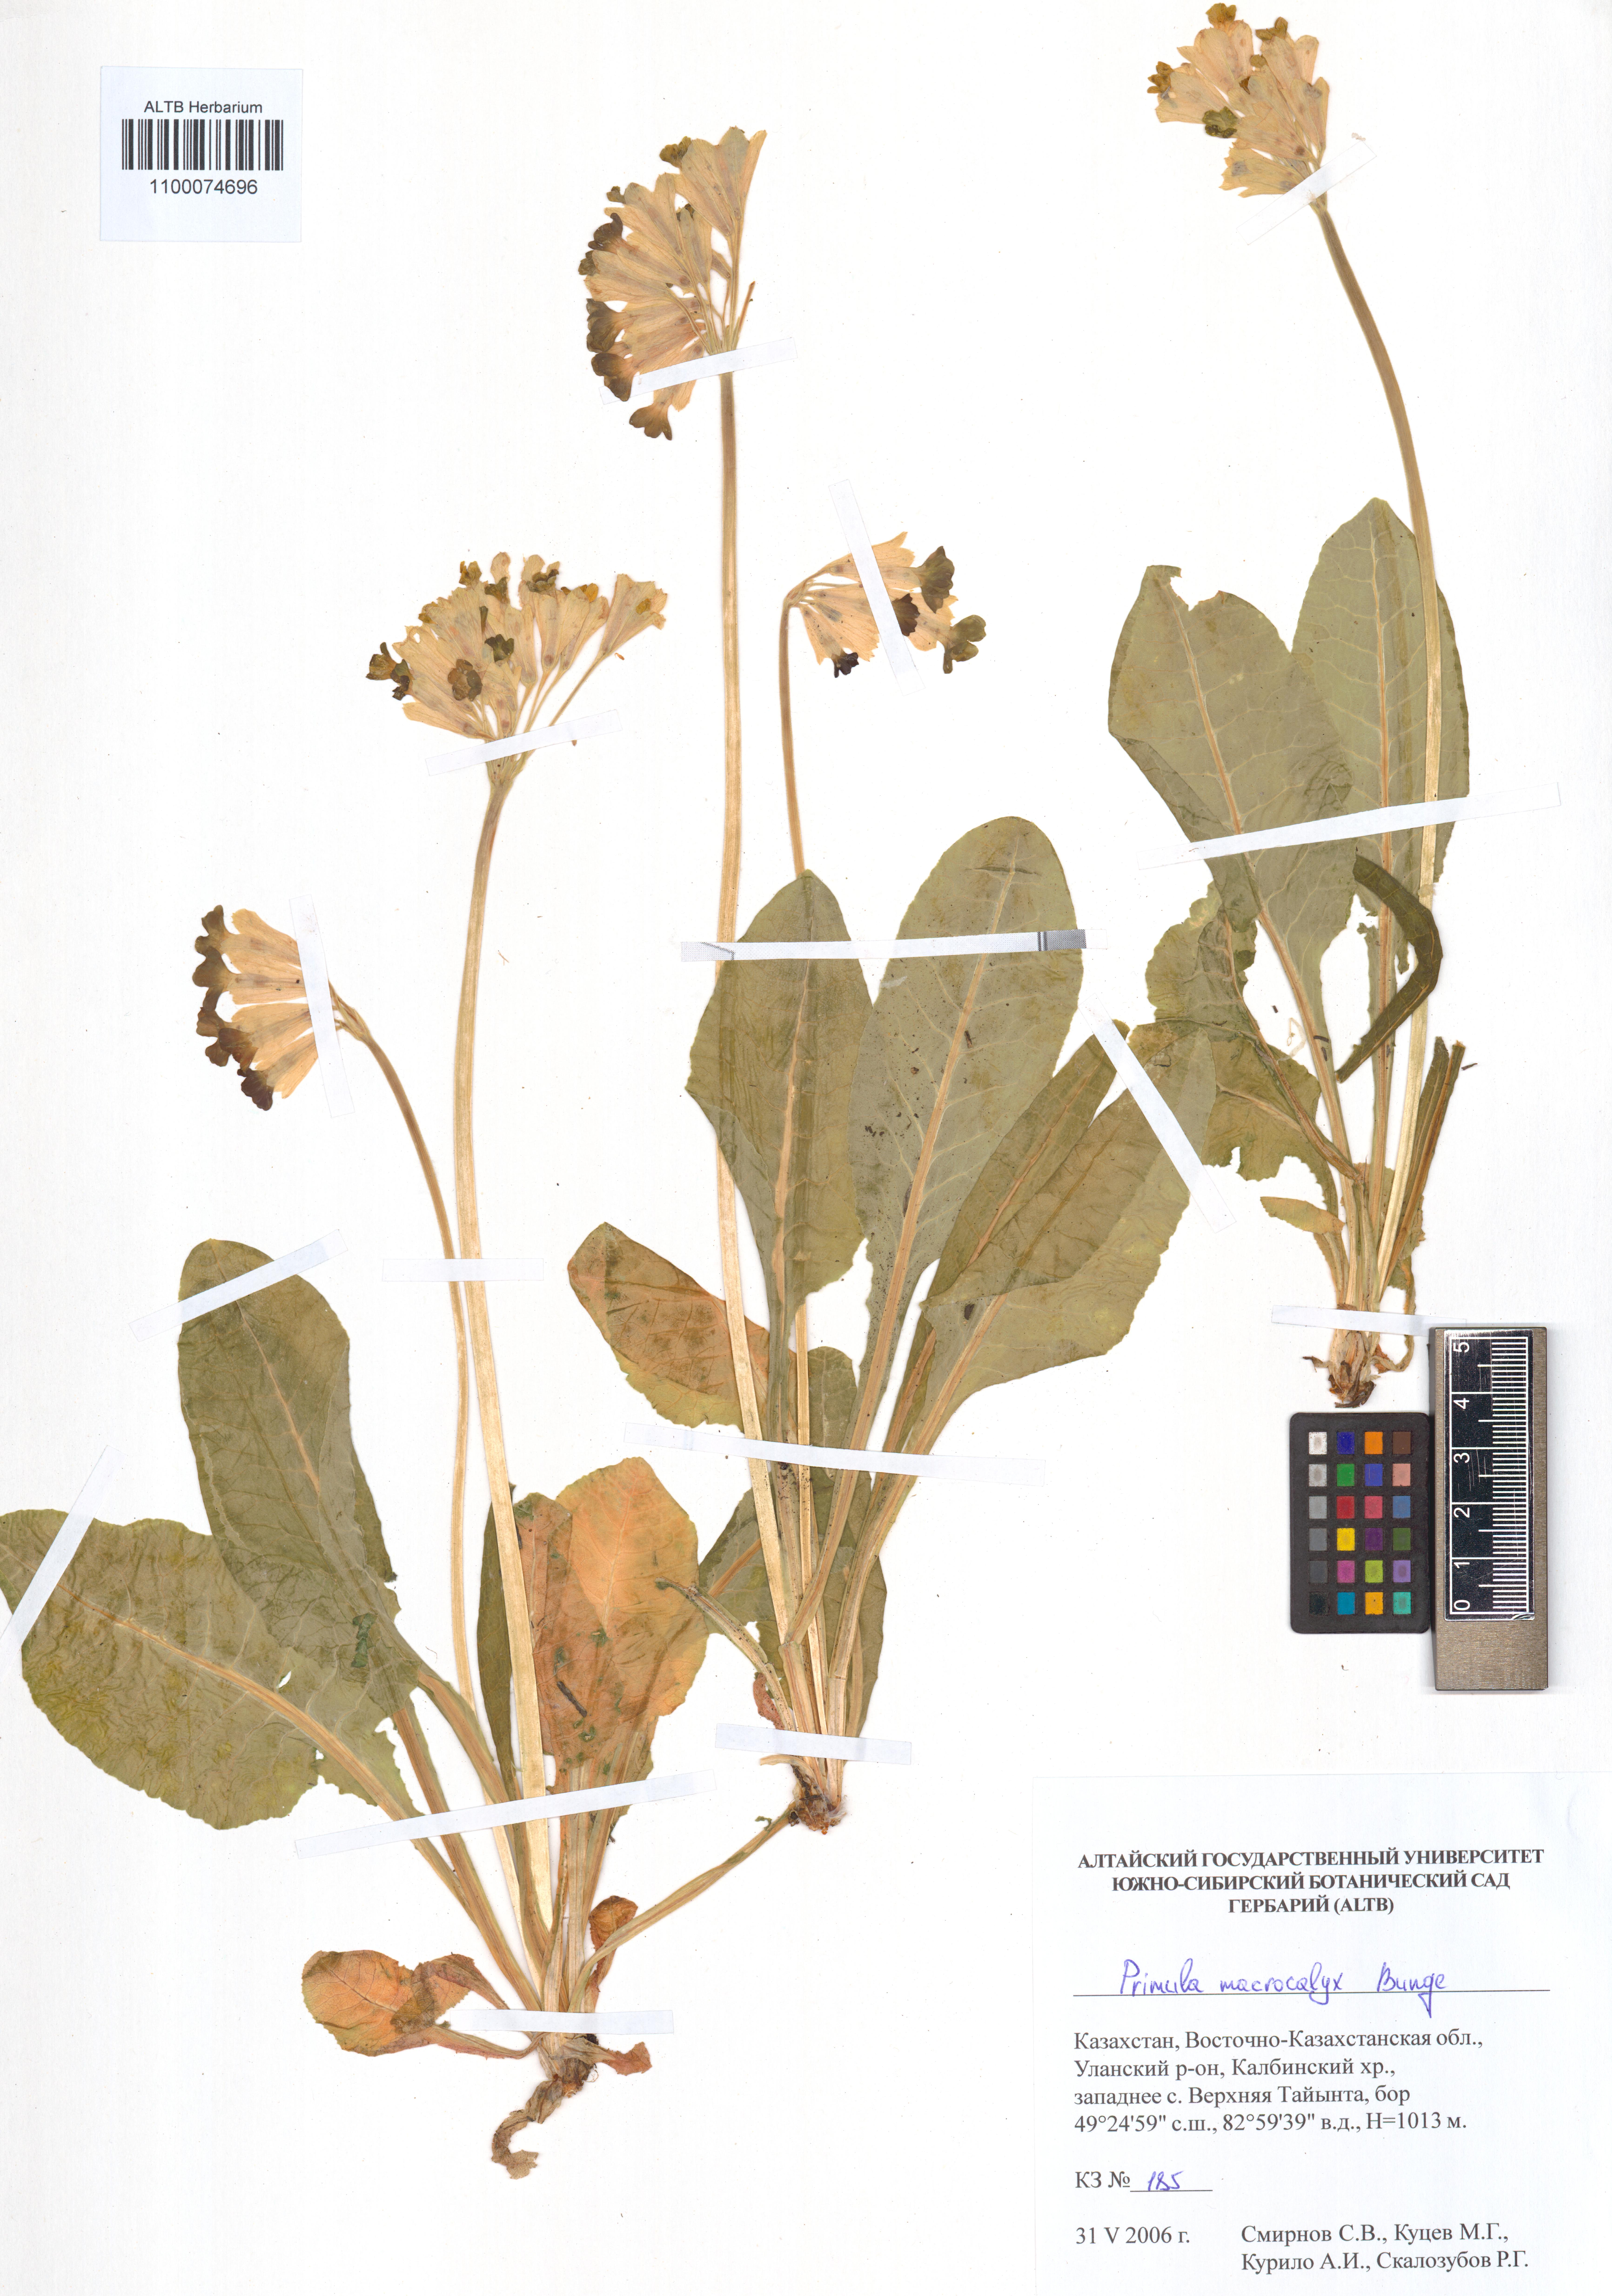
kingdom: Plantae
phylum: Tracheophyta
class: Magnoliopsida
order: Ericales
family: Primulaceae
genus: Primula
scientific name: Primula veris
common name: Cowslip
